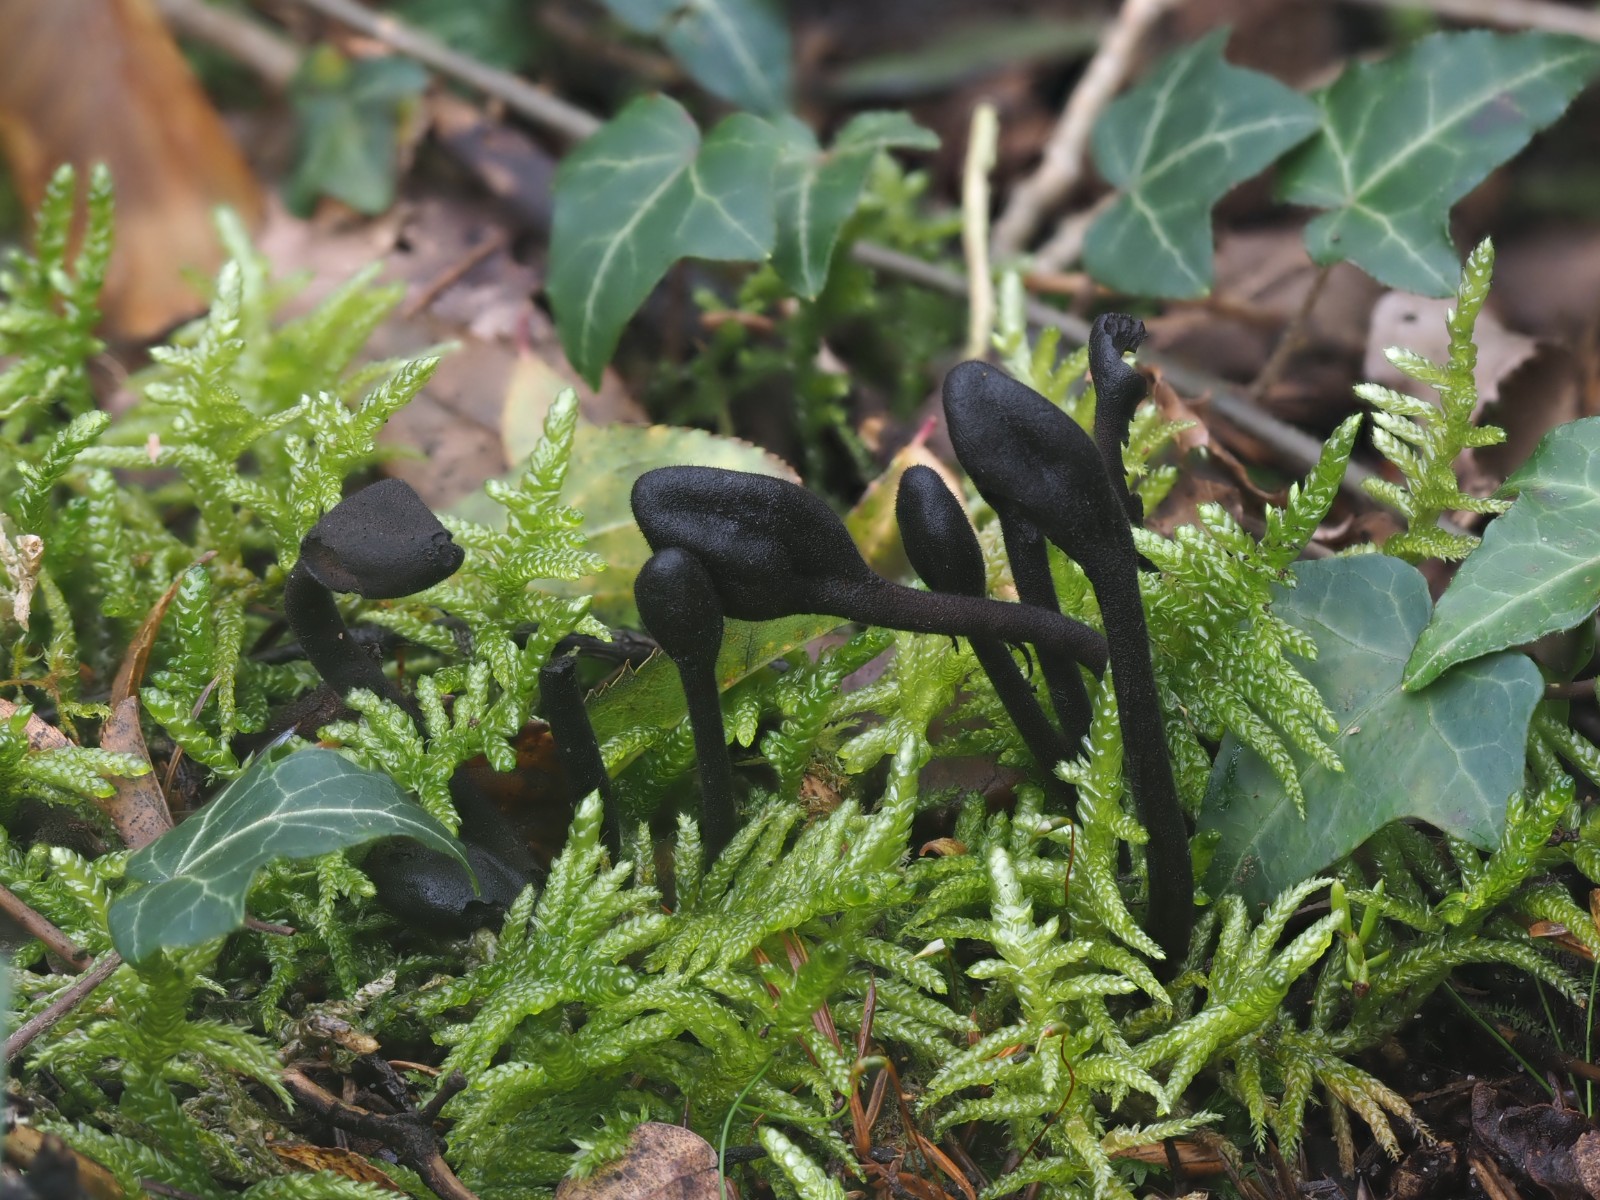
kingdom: Fungi
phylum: Ascomycota
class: Geoglossomycetes
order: Geoglossales
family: Geoglossaceae
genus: Trichoglossum
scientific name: Trichoglossum hirsutum
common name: håret jordtunge
